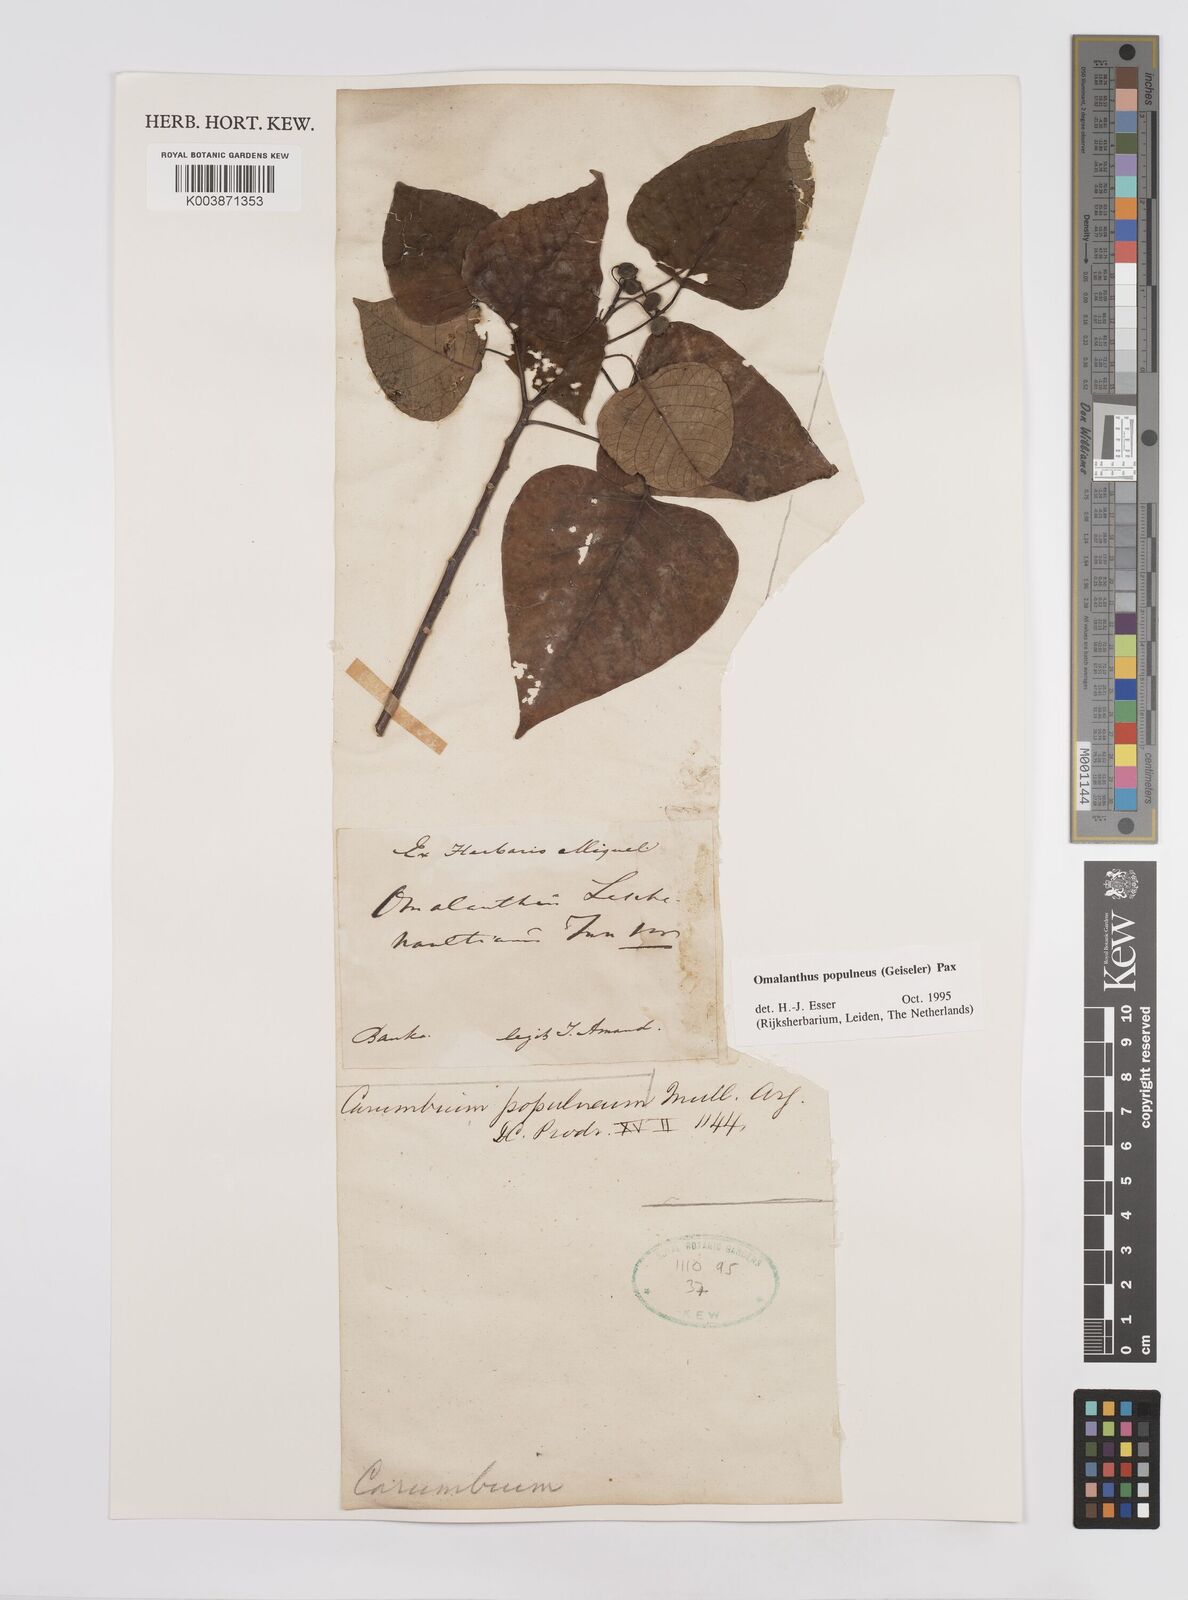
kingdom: Plantae
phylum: Tracheophyta
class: Magnoliopsida
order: Malpighiales
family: Euphorbiaceae
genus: Homalanthus
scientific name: Homalanthus populneus
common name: Spurge
